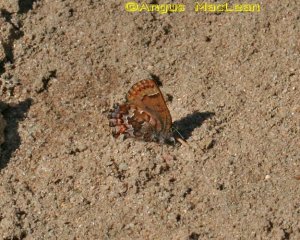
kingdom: Animalia
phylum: Arthropoda
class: Insecta
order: Lepidoptera
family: Lycaenidae
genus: Incisalia
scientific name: Incisalia niphon
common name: Eastern Pine Elfin
